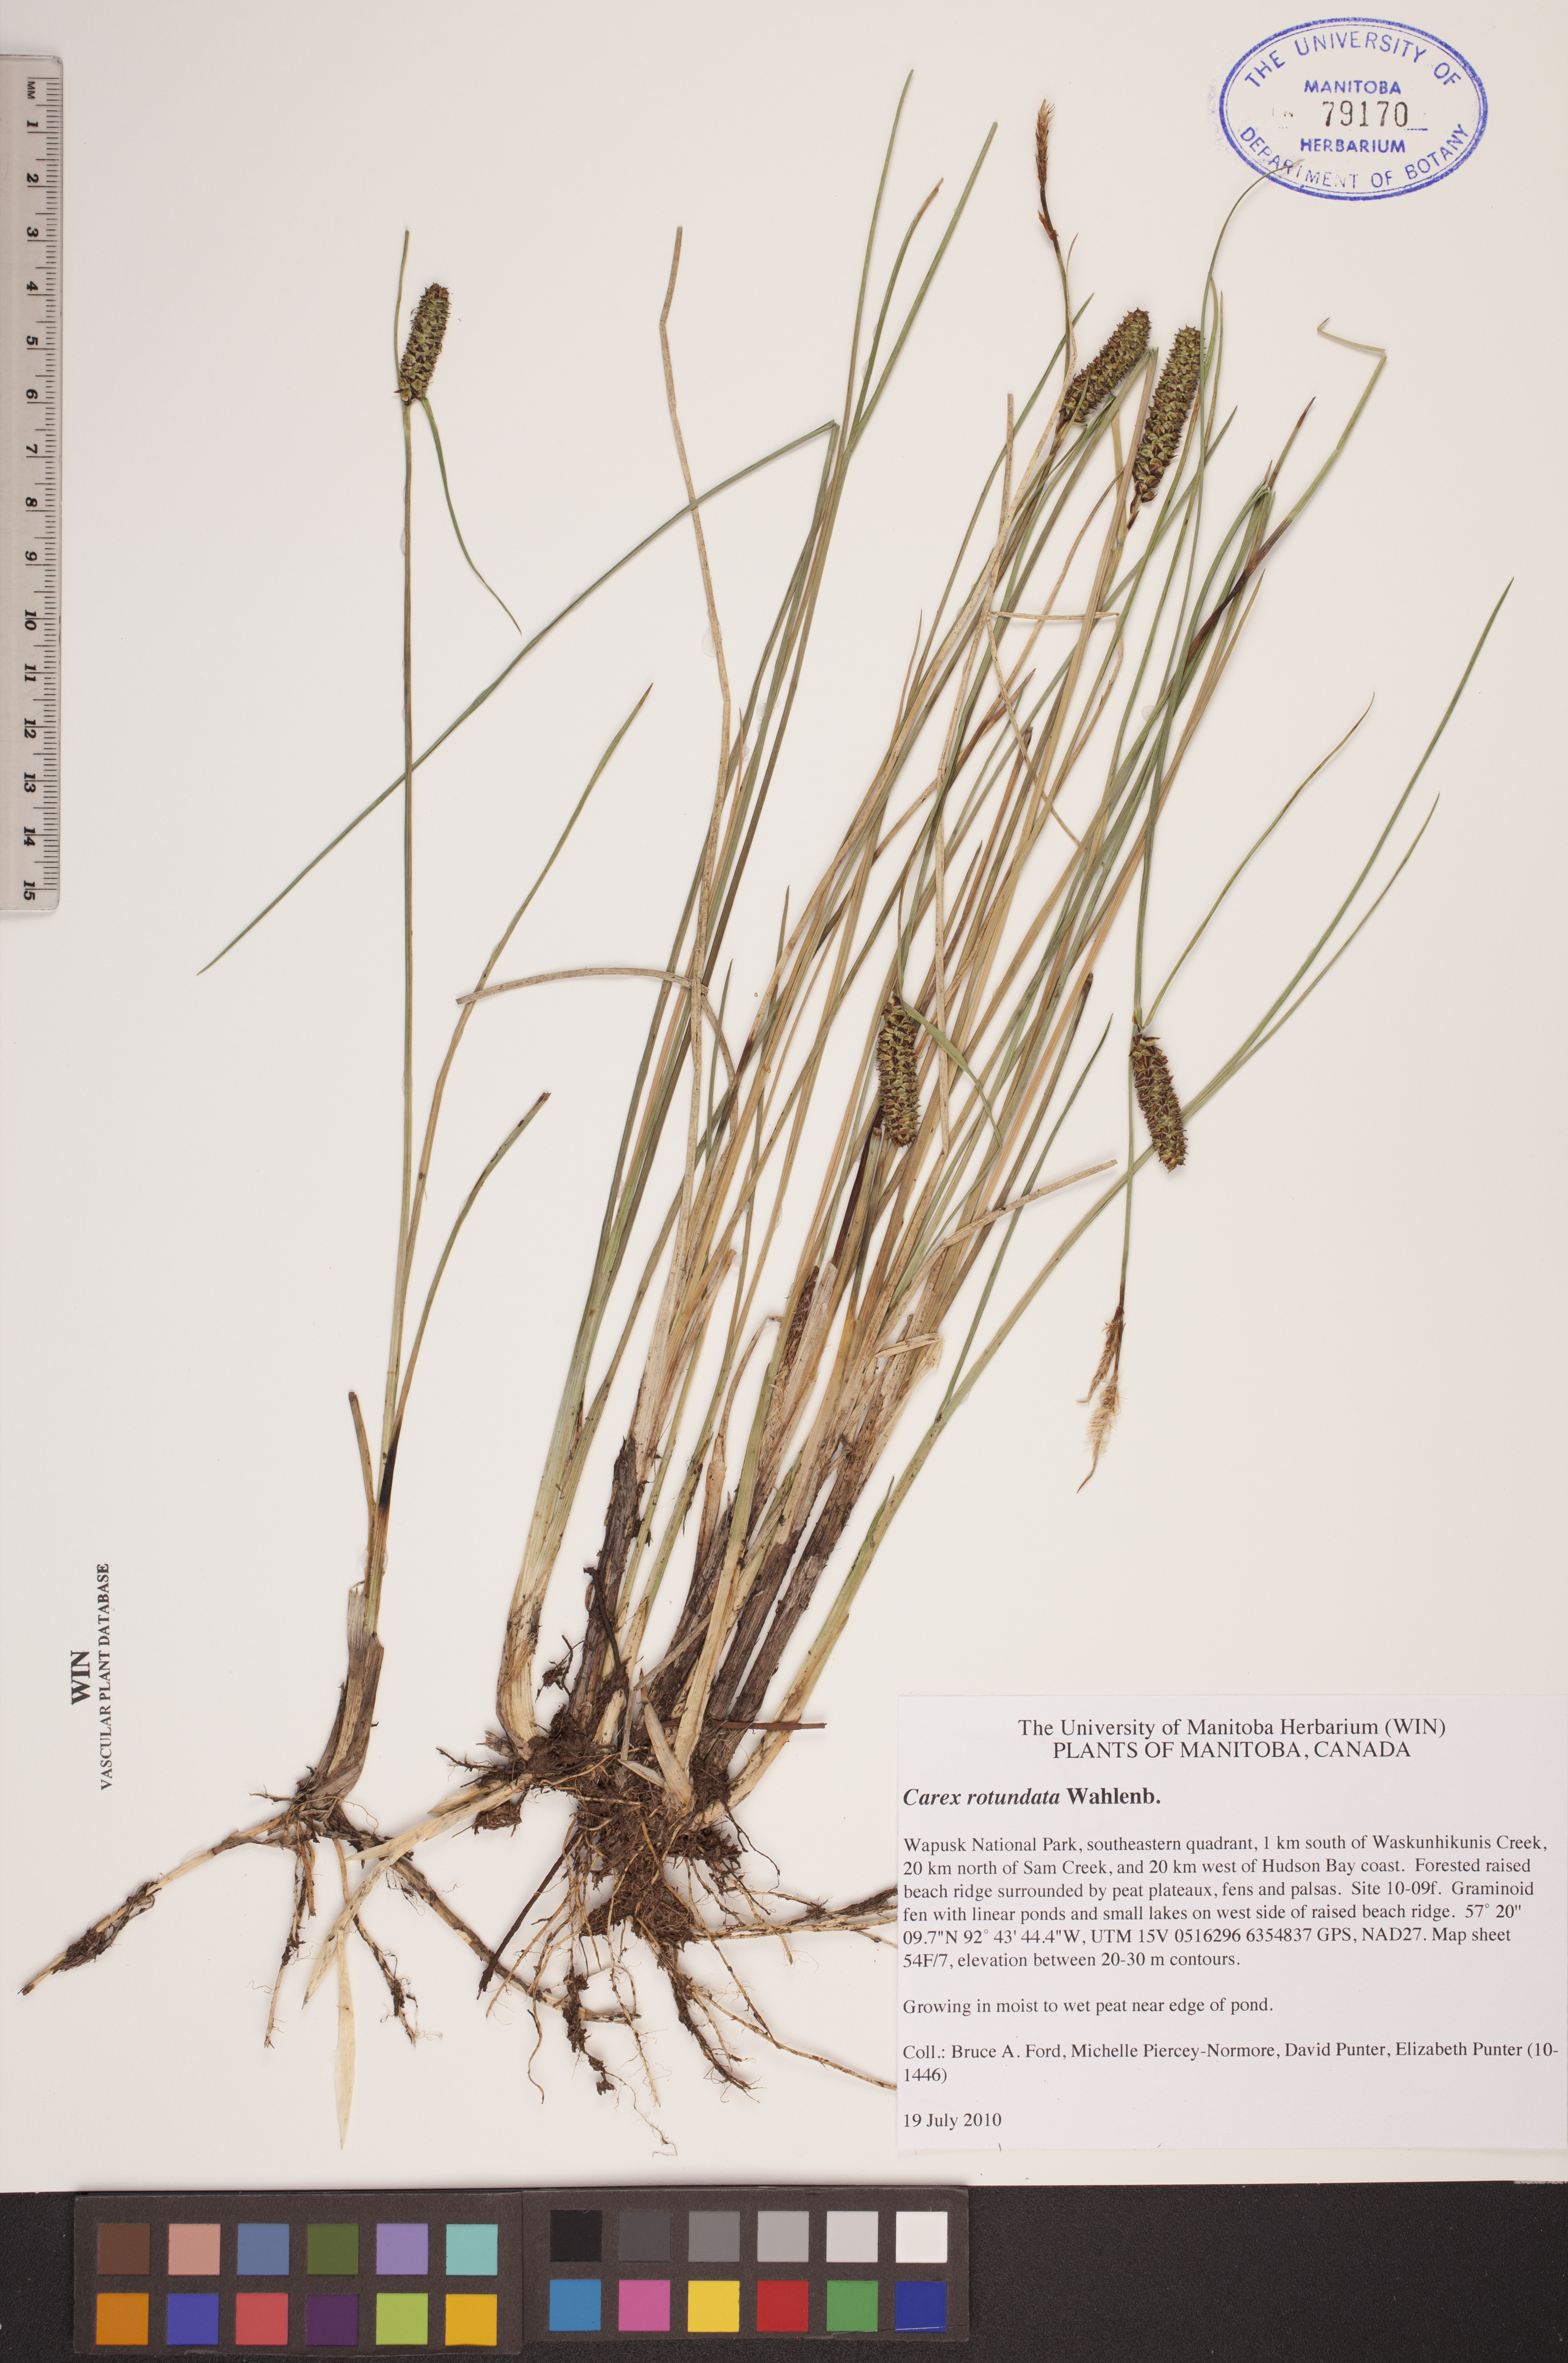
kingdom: Plantae
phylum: Tracheophyta
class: Liliopsida
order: Poales
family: Cyperaceae
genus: Carex
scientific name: Carex rotundata
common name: Round-fruited sedge
